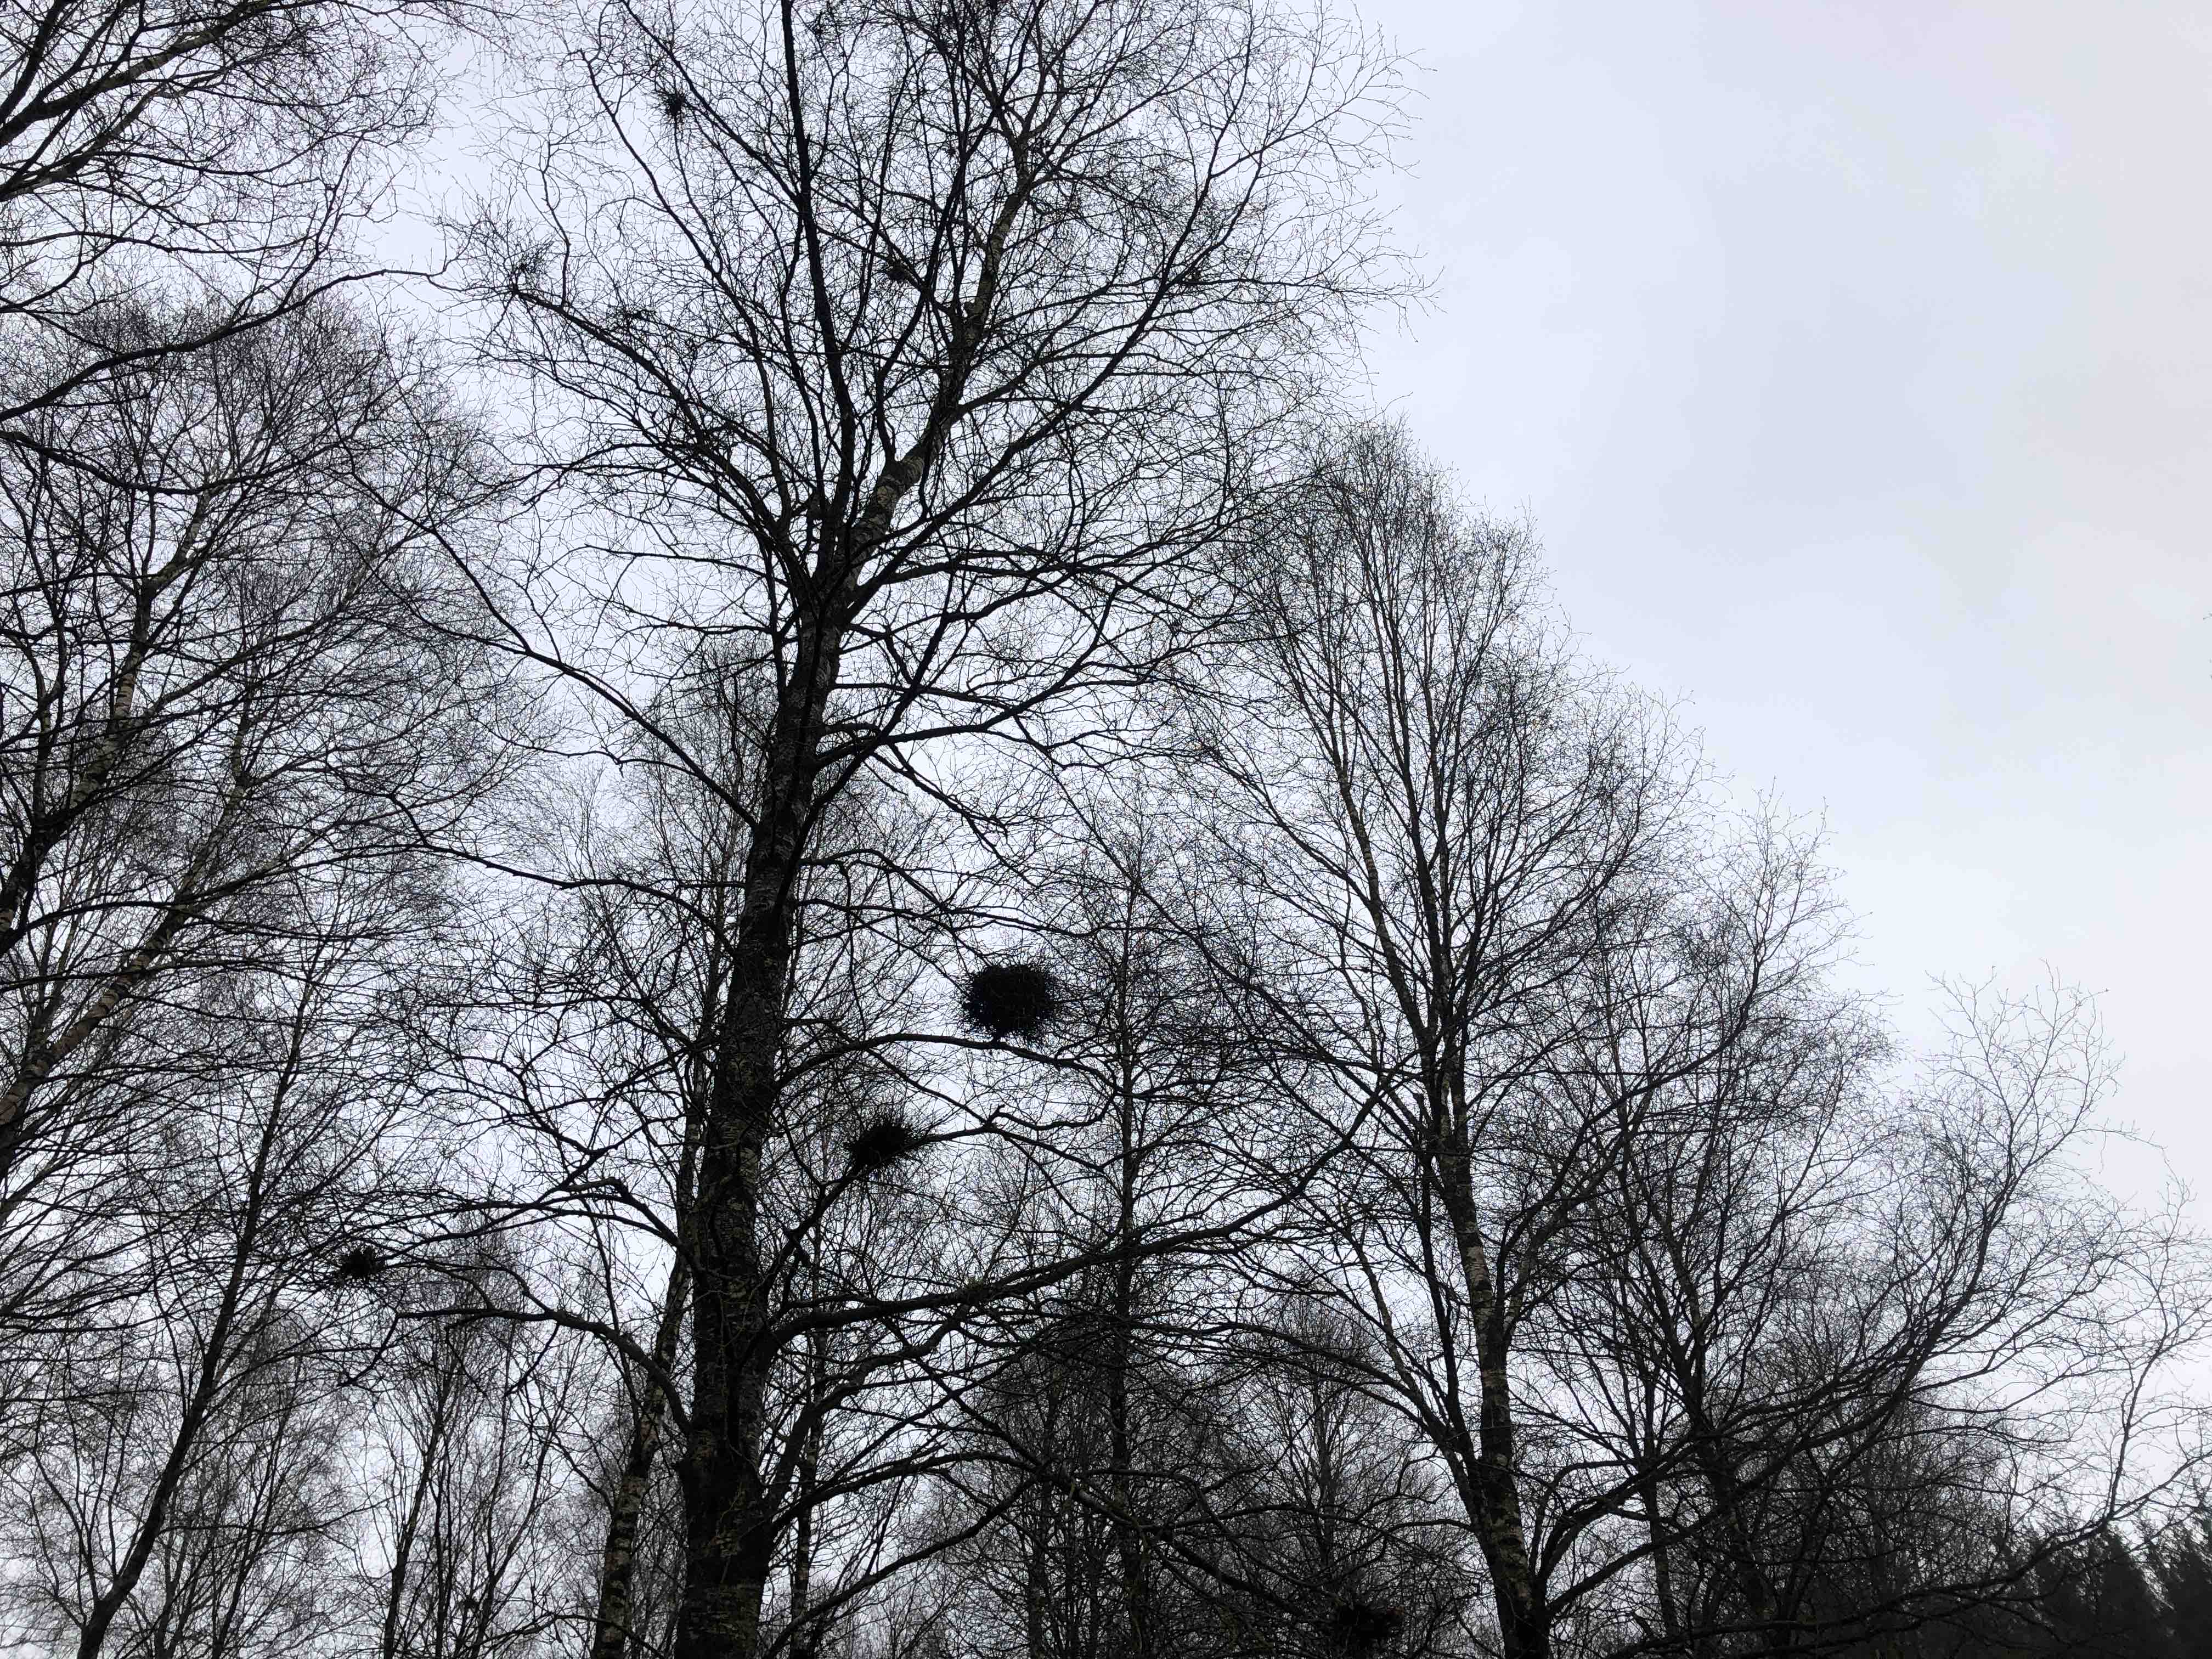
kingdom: Fungi
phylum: Ascomycota
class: Taphrinomycetes
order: Taphrinales
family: Taphrinaceae
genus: Taphrina
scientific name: Taphrina betulina
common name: hekse-sækdug
